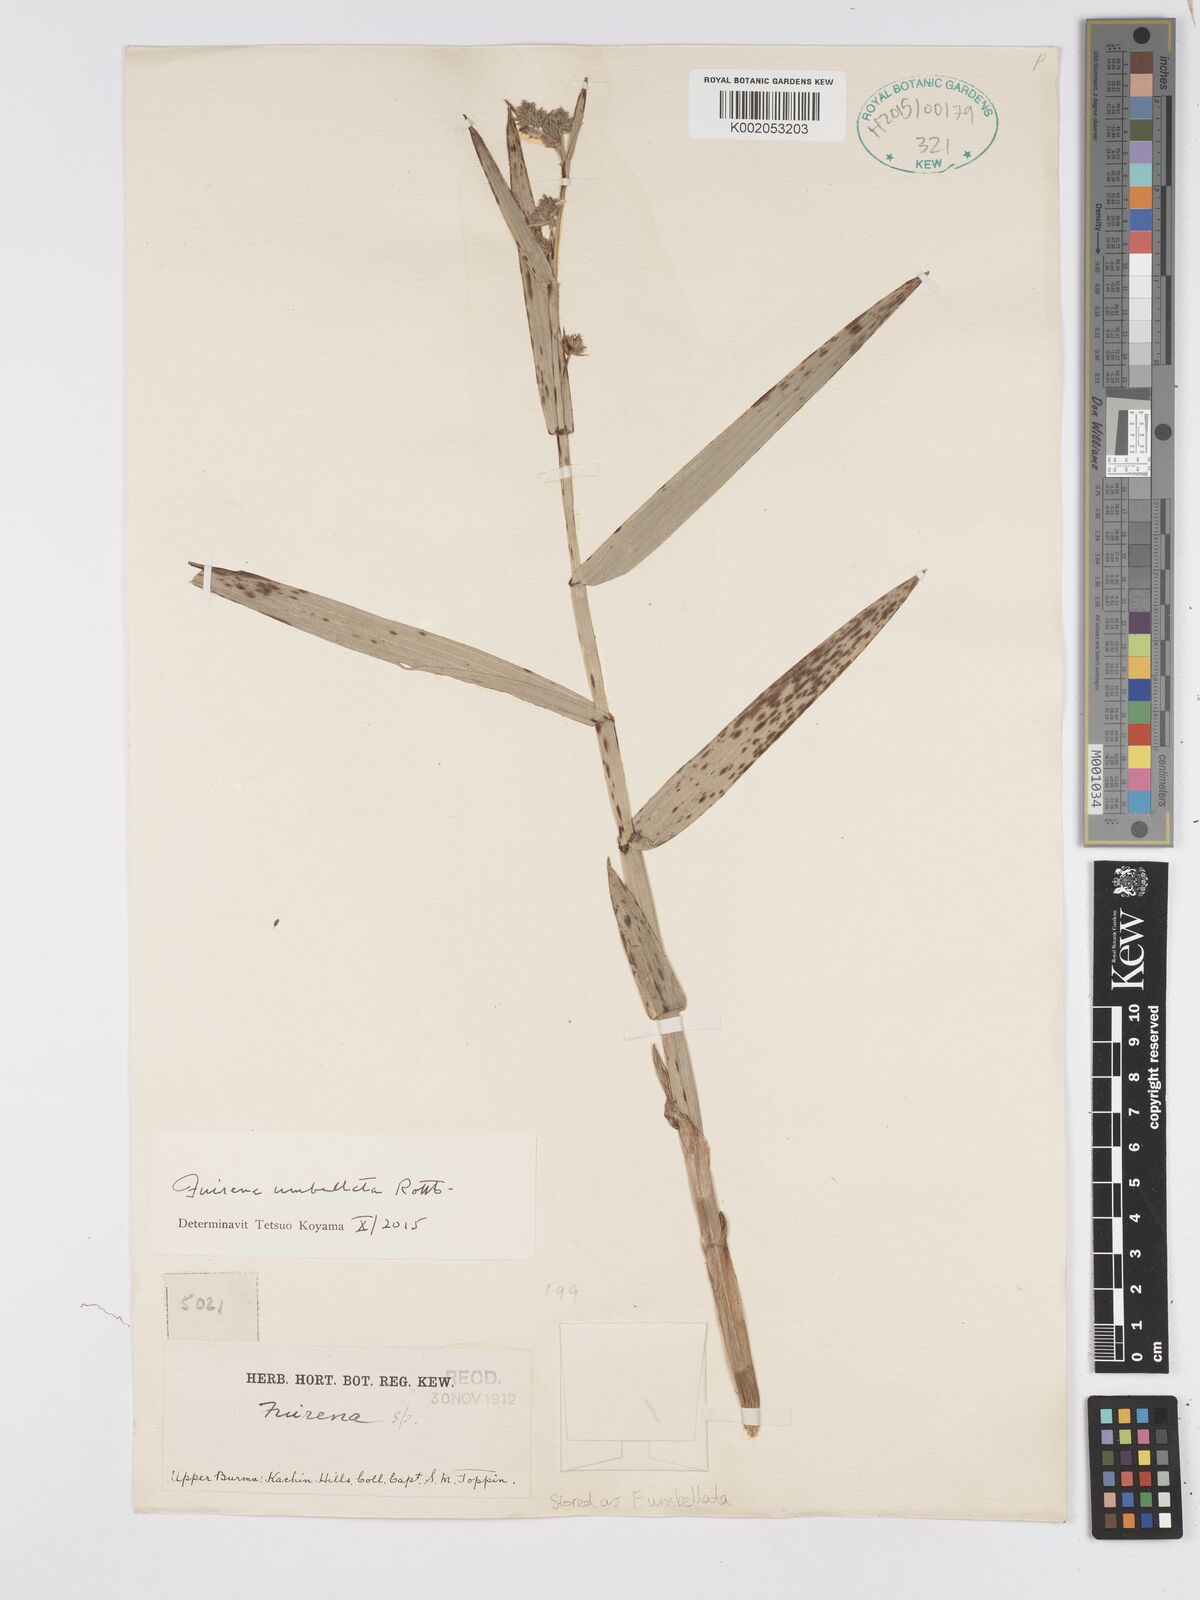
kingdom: Plantae
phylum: Tracheophyta
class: Liliopsida
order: Poales
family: Cyperaceae
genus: Fuirena
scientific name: Fuirena umbellata
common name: Yefen
